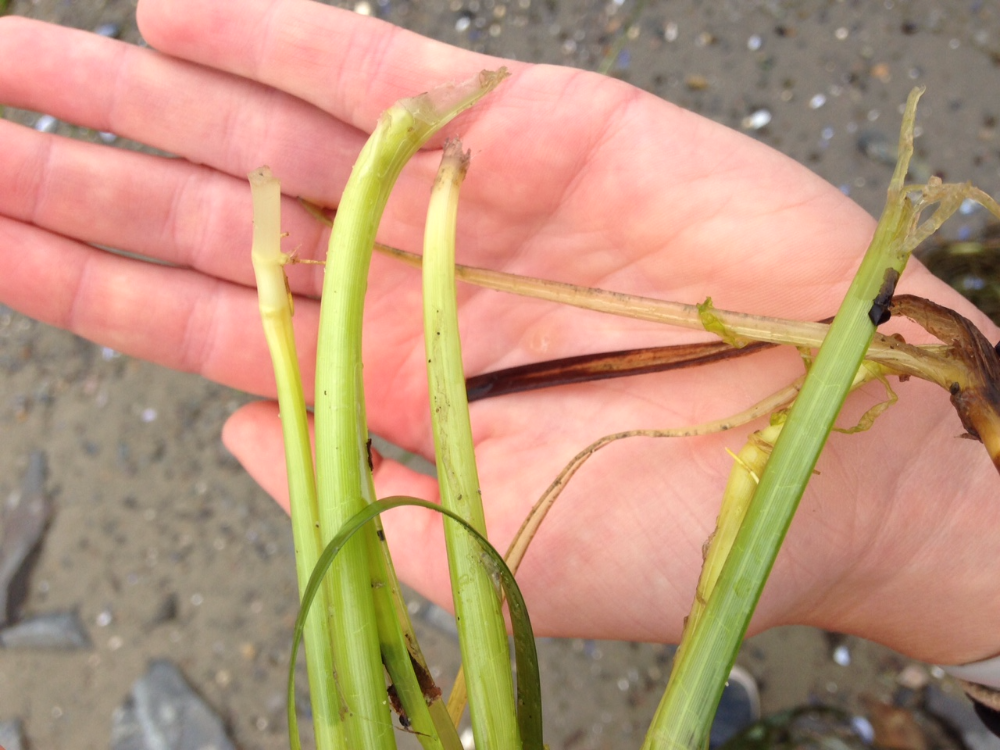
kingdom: Plantae
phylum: Tracheophyta
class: Liliopsida
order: Alismatales
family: Zosteraceae
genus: Zostera
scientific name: Zostera marina
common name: Eelgrass
